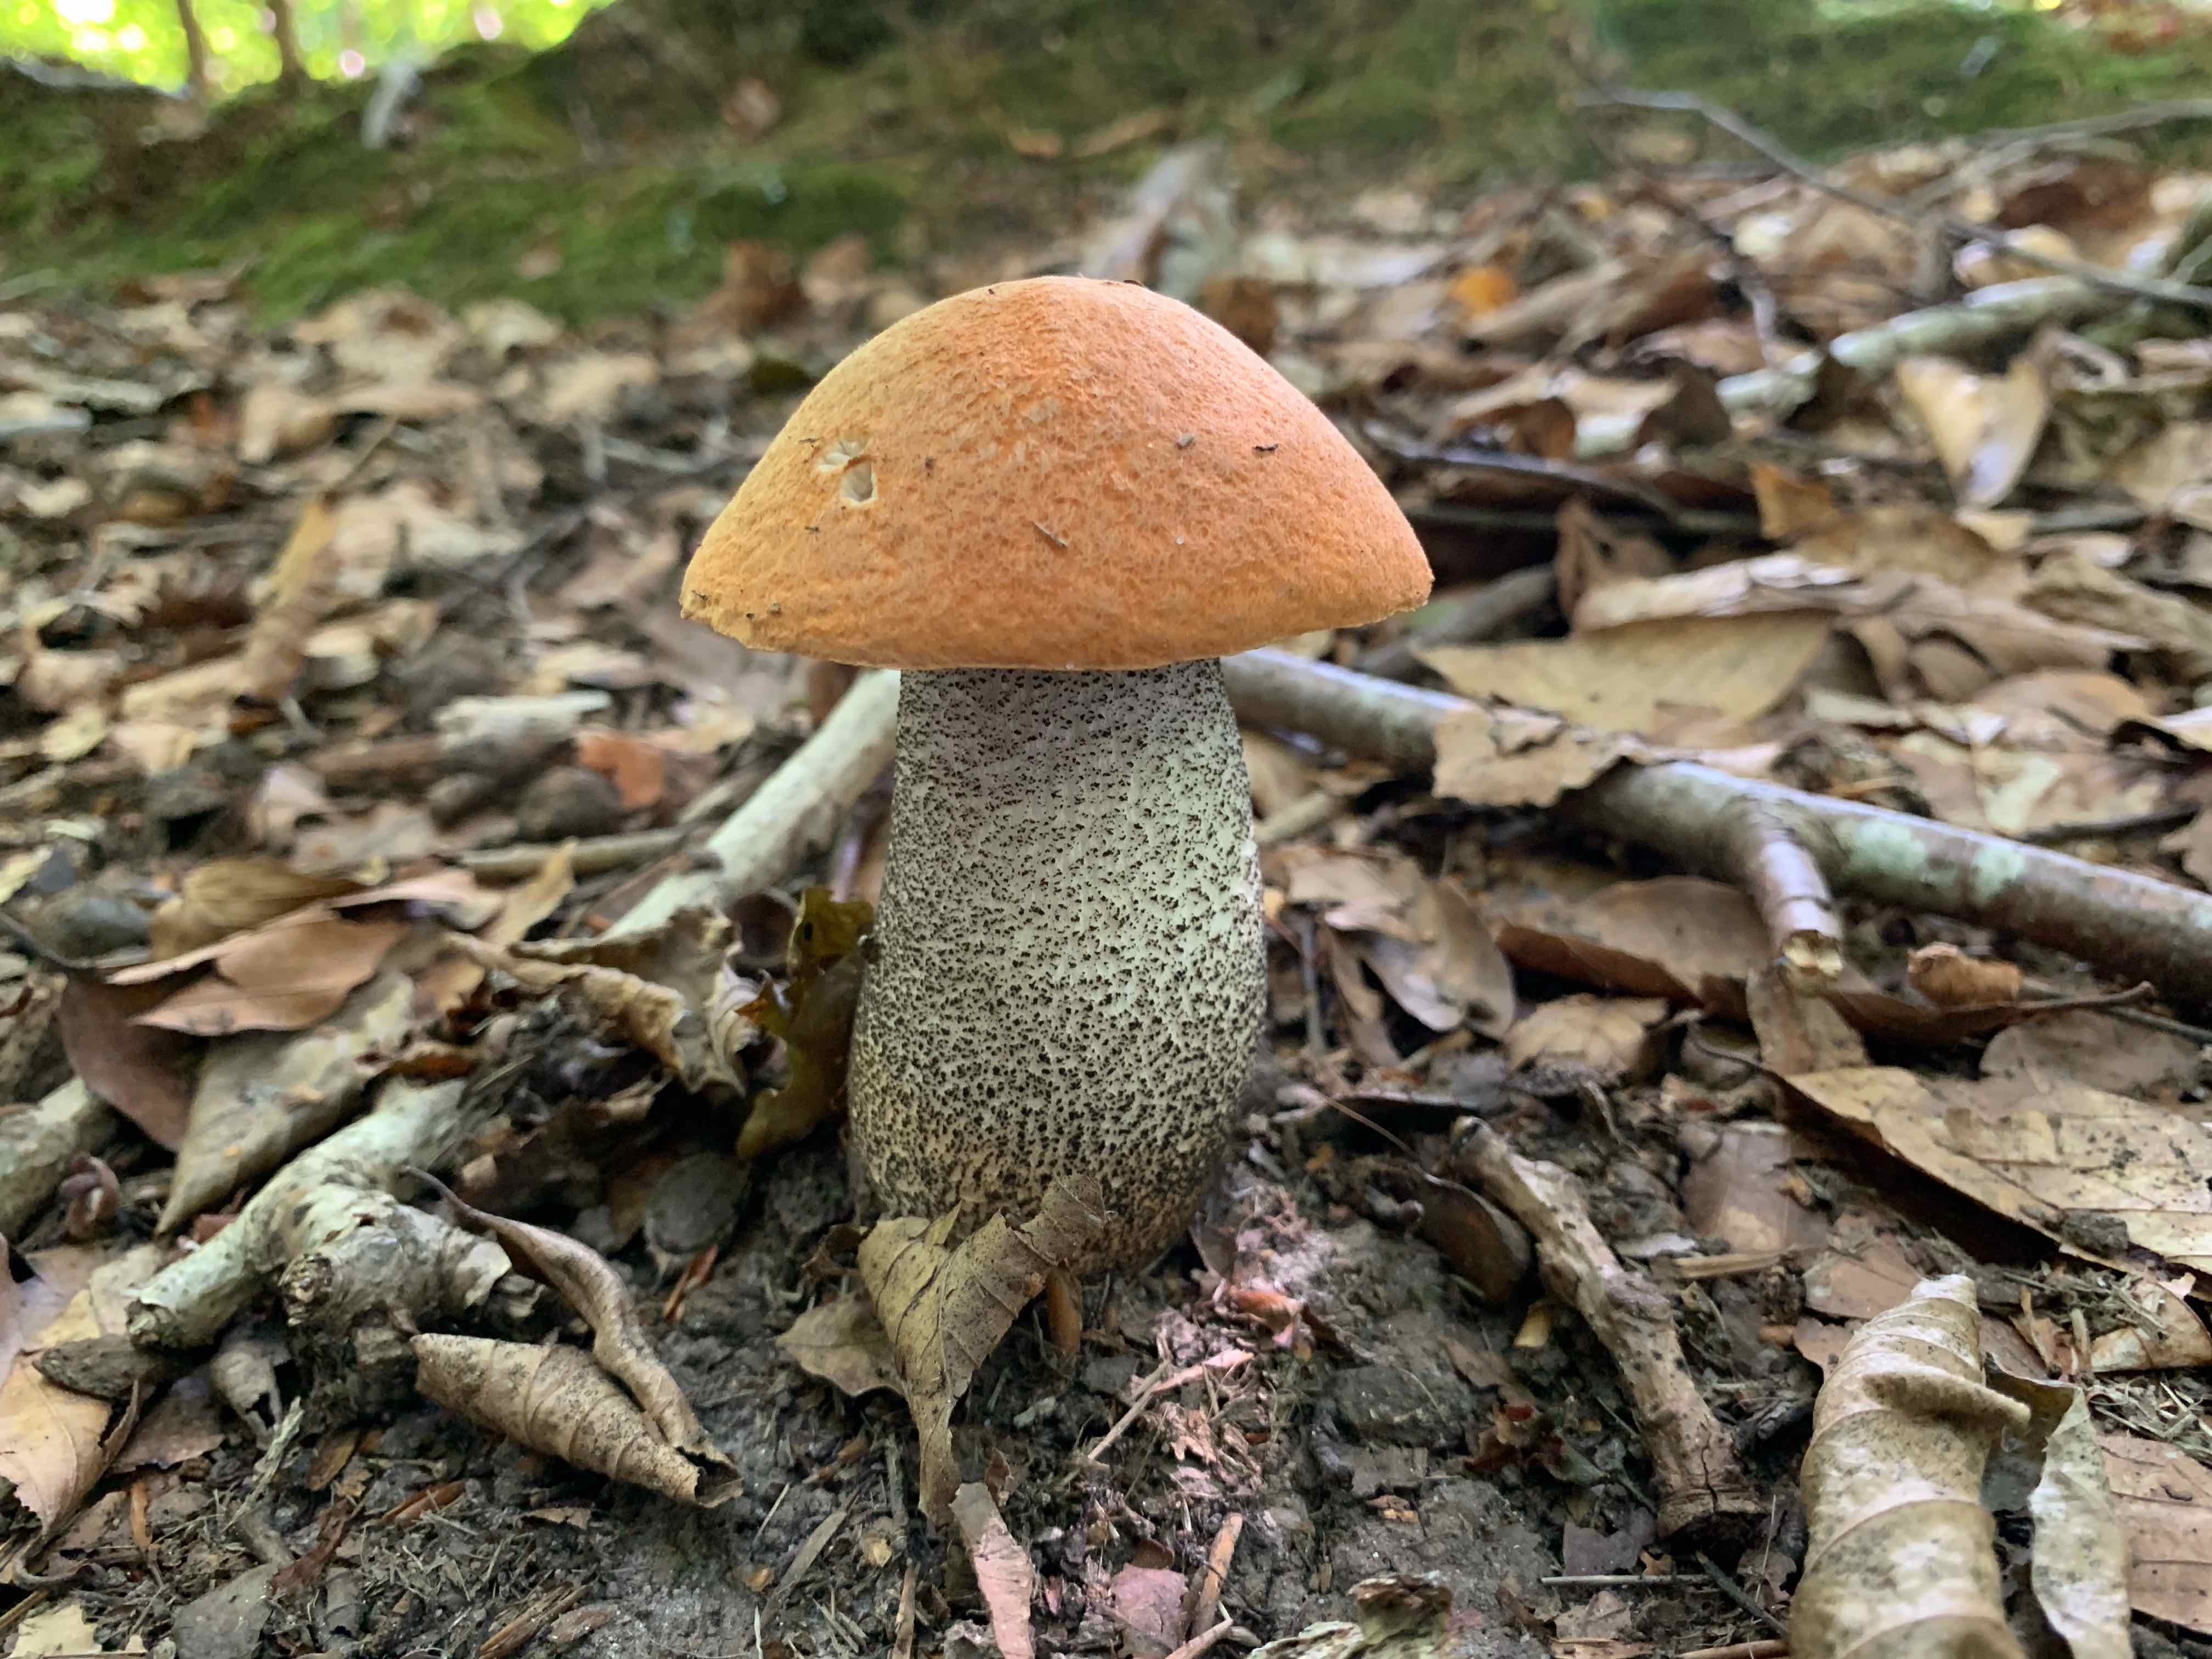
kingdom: Fungi
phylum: Basidiomycota
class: Agaricomycetes
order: Boletales
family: Boletaceae
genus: Leccinum
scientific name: Leccinum versipelle
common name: orange skælrørhat
